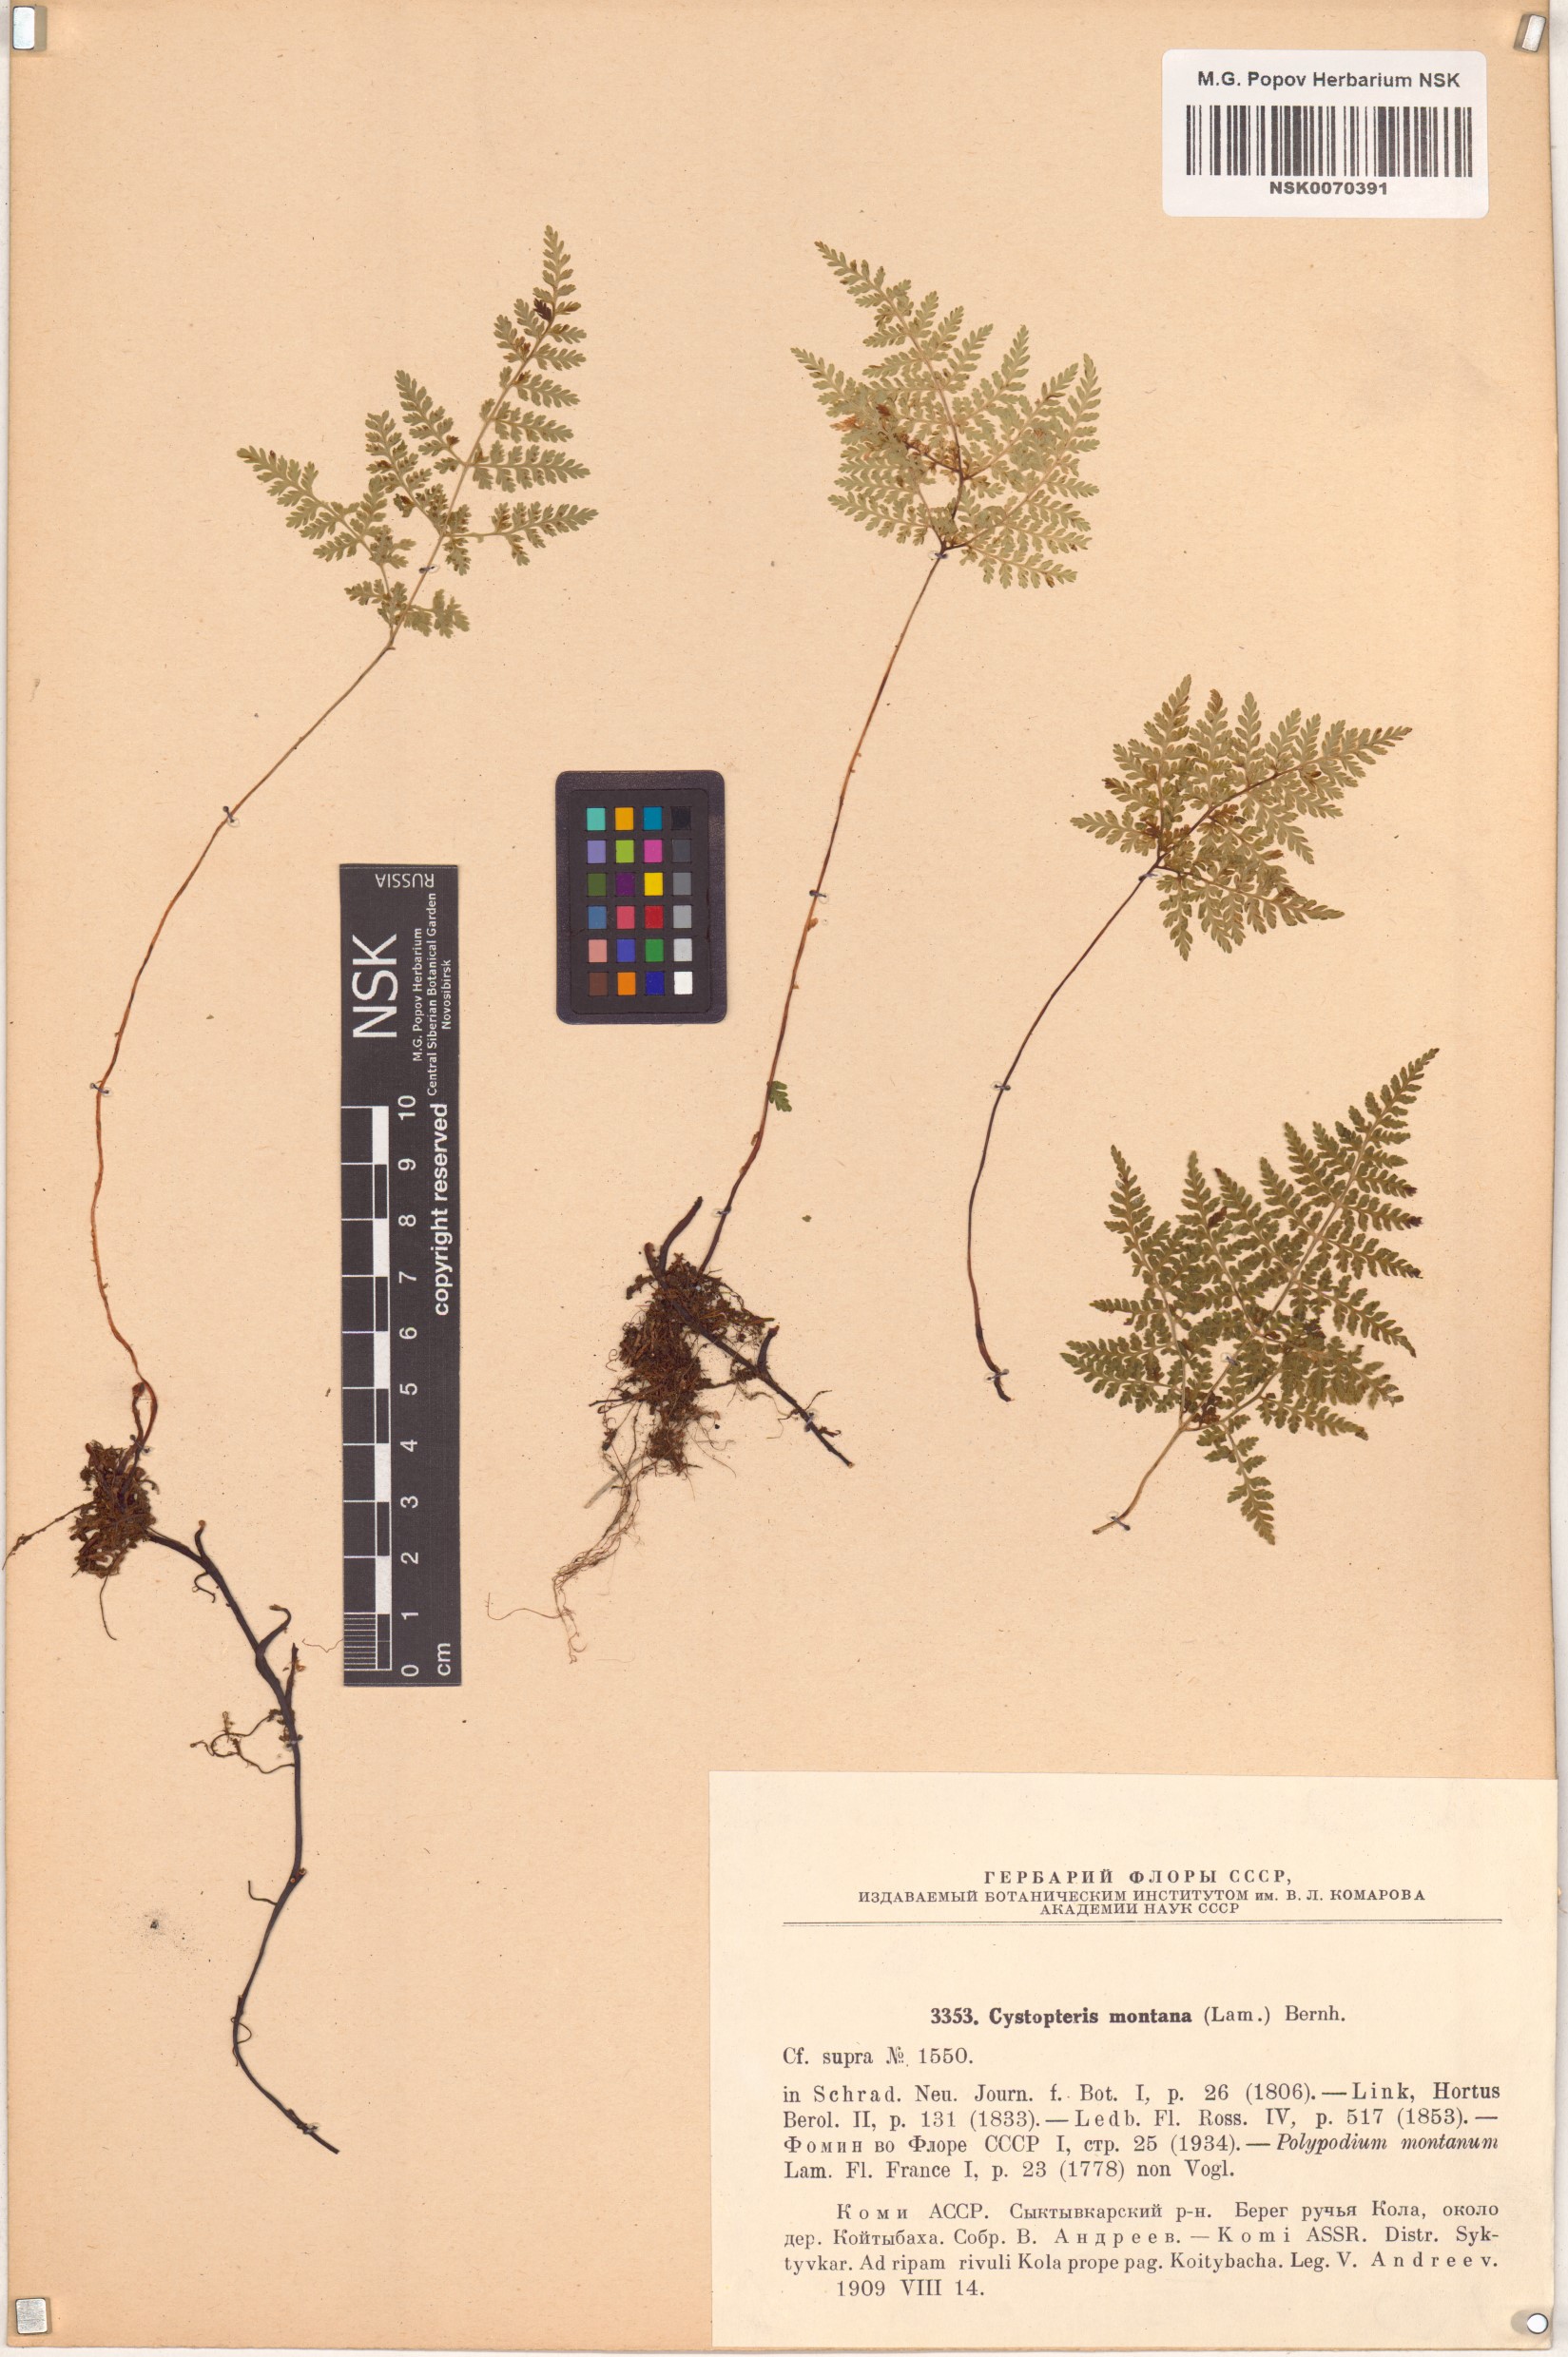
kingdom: Plantae
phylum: Tracheophyta
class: Polypodiopsida
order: Polypodiales
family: Cystopteridaceae
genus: Cystopteris
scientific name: Cystopteris montana
